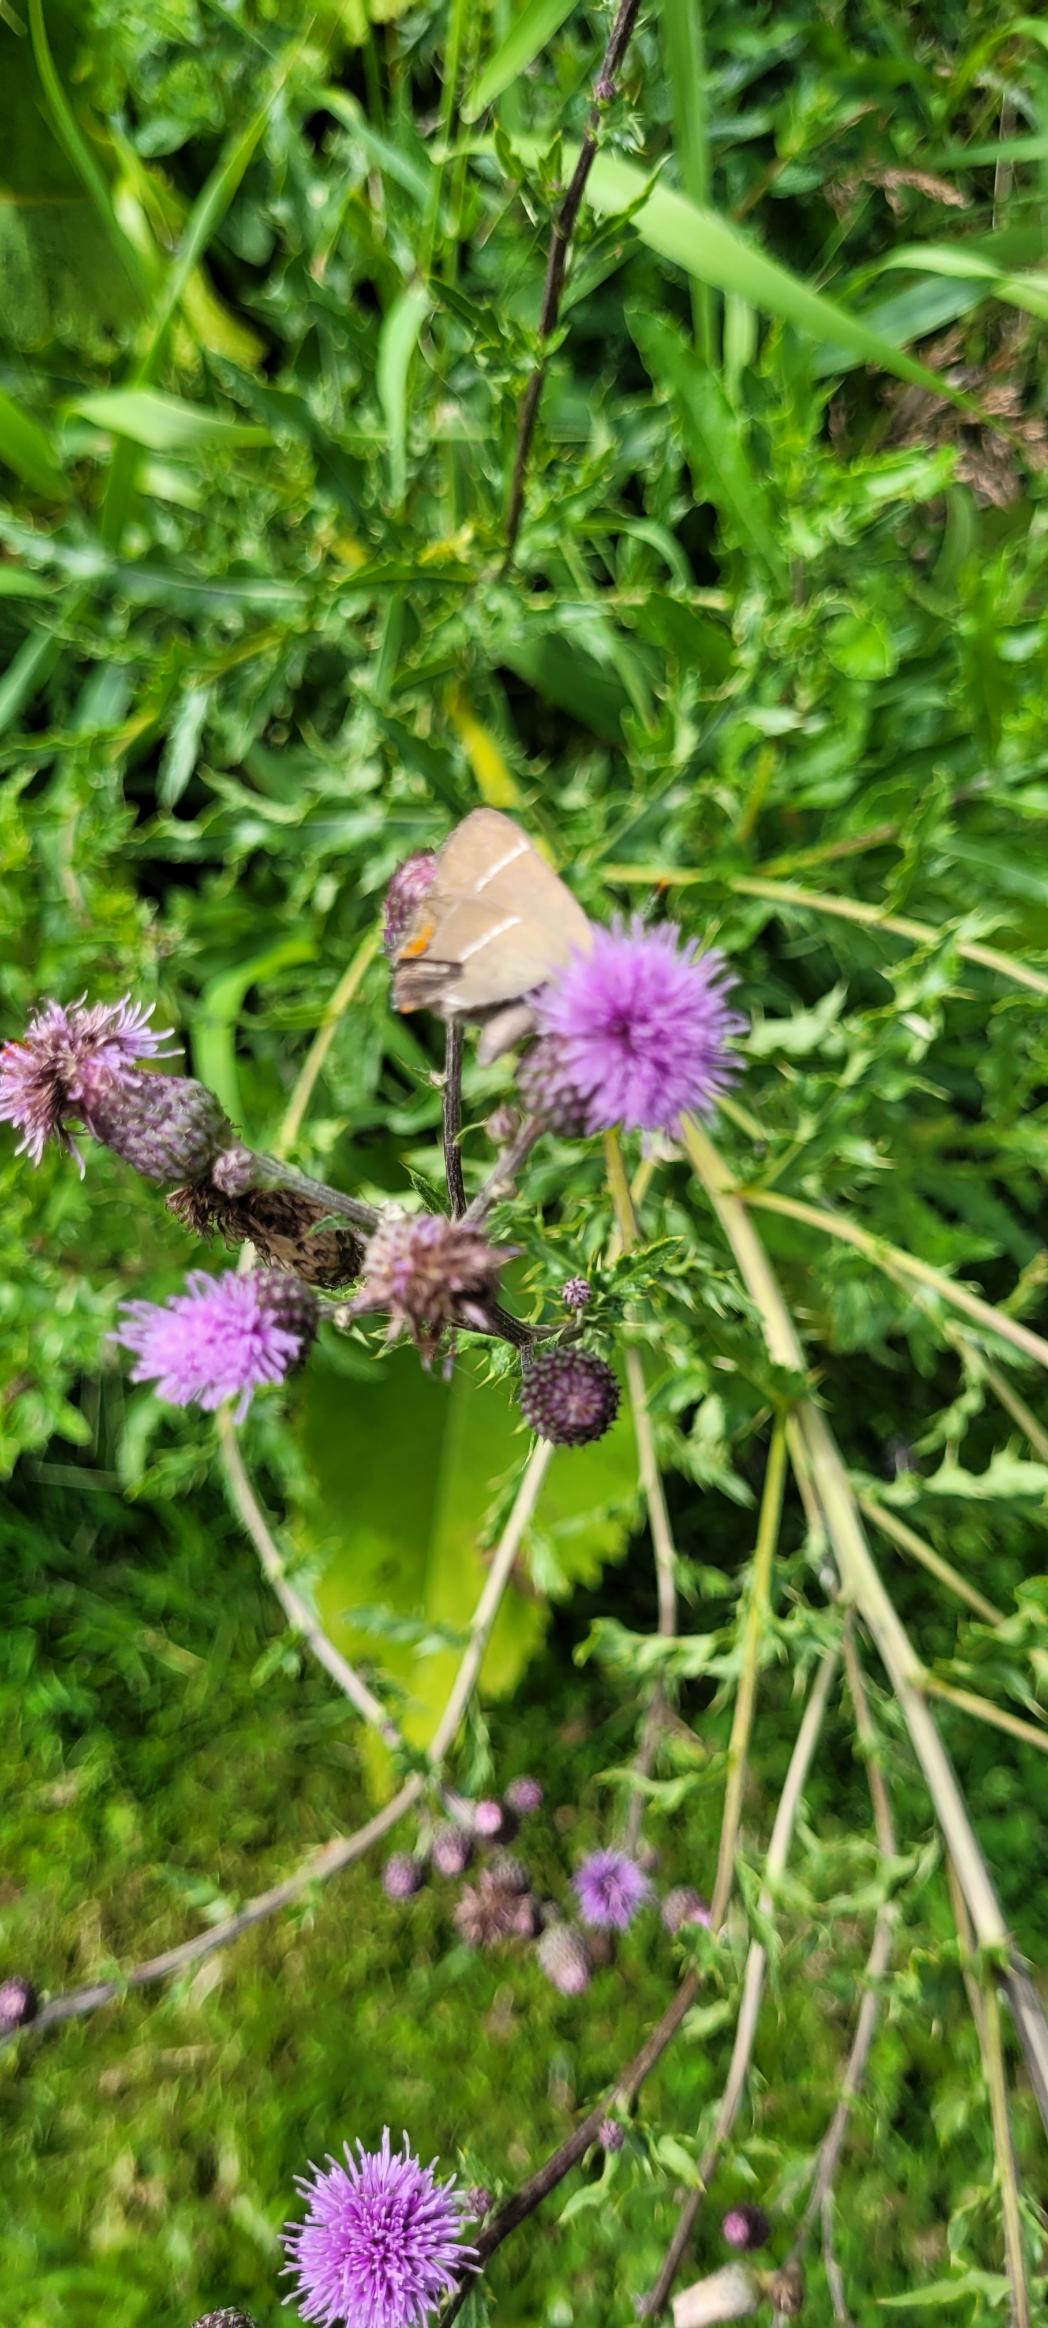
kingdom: Animalia
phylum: Arthropoda
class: Insecta
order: Lepidoptera
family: Lycaenidae
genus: Satyrium
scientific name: Satyrium w-album
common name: Det hvide W
